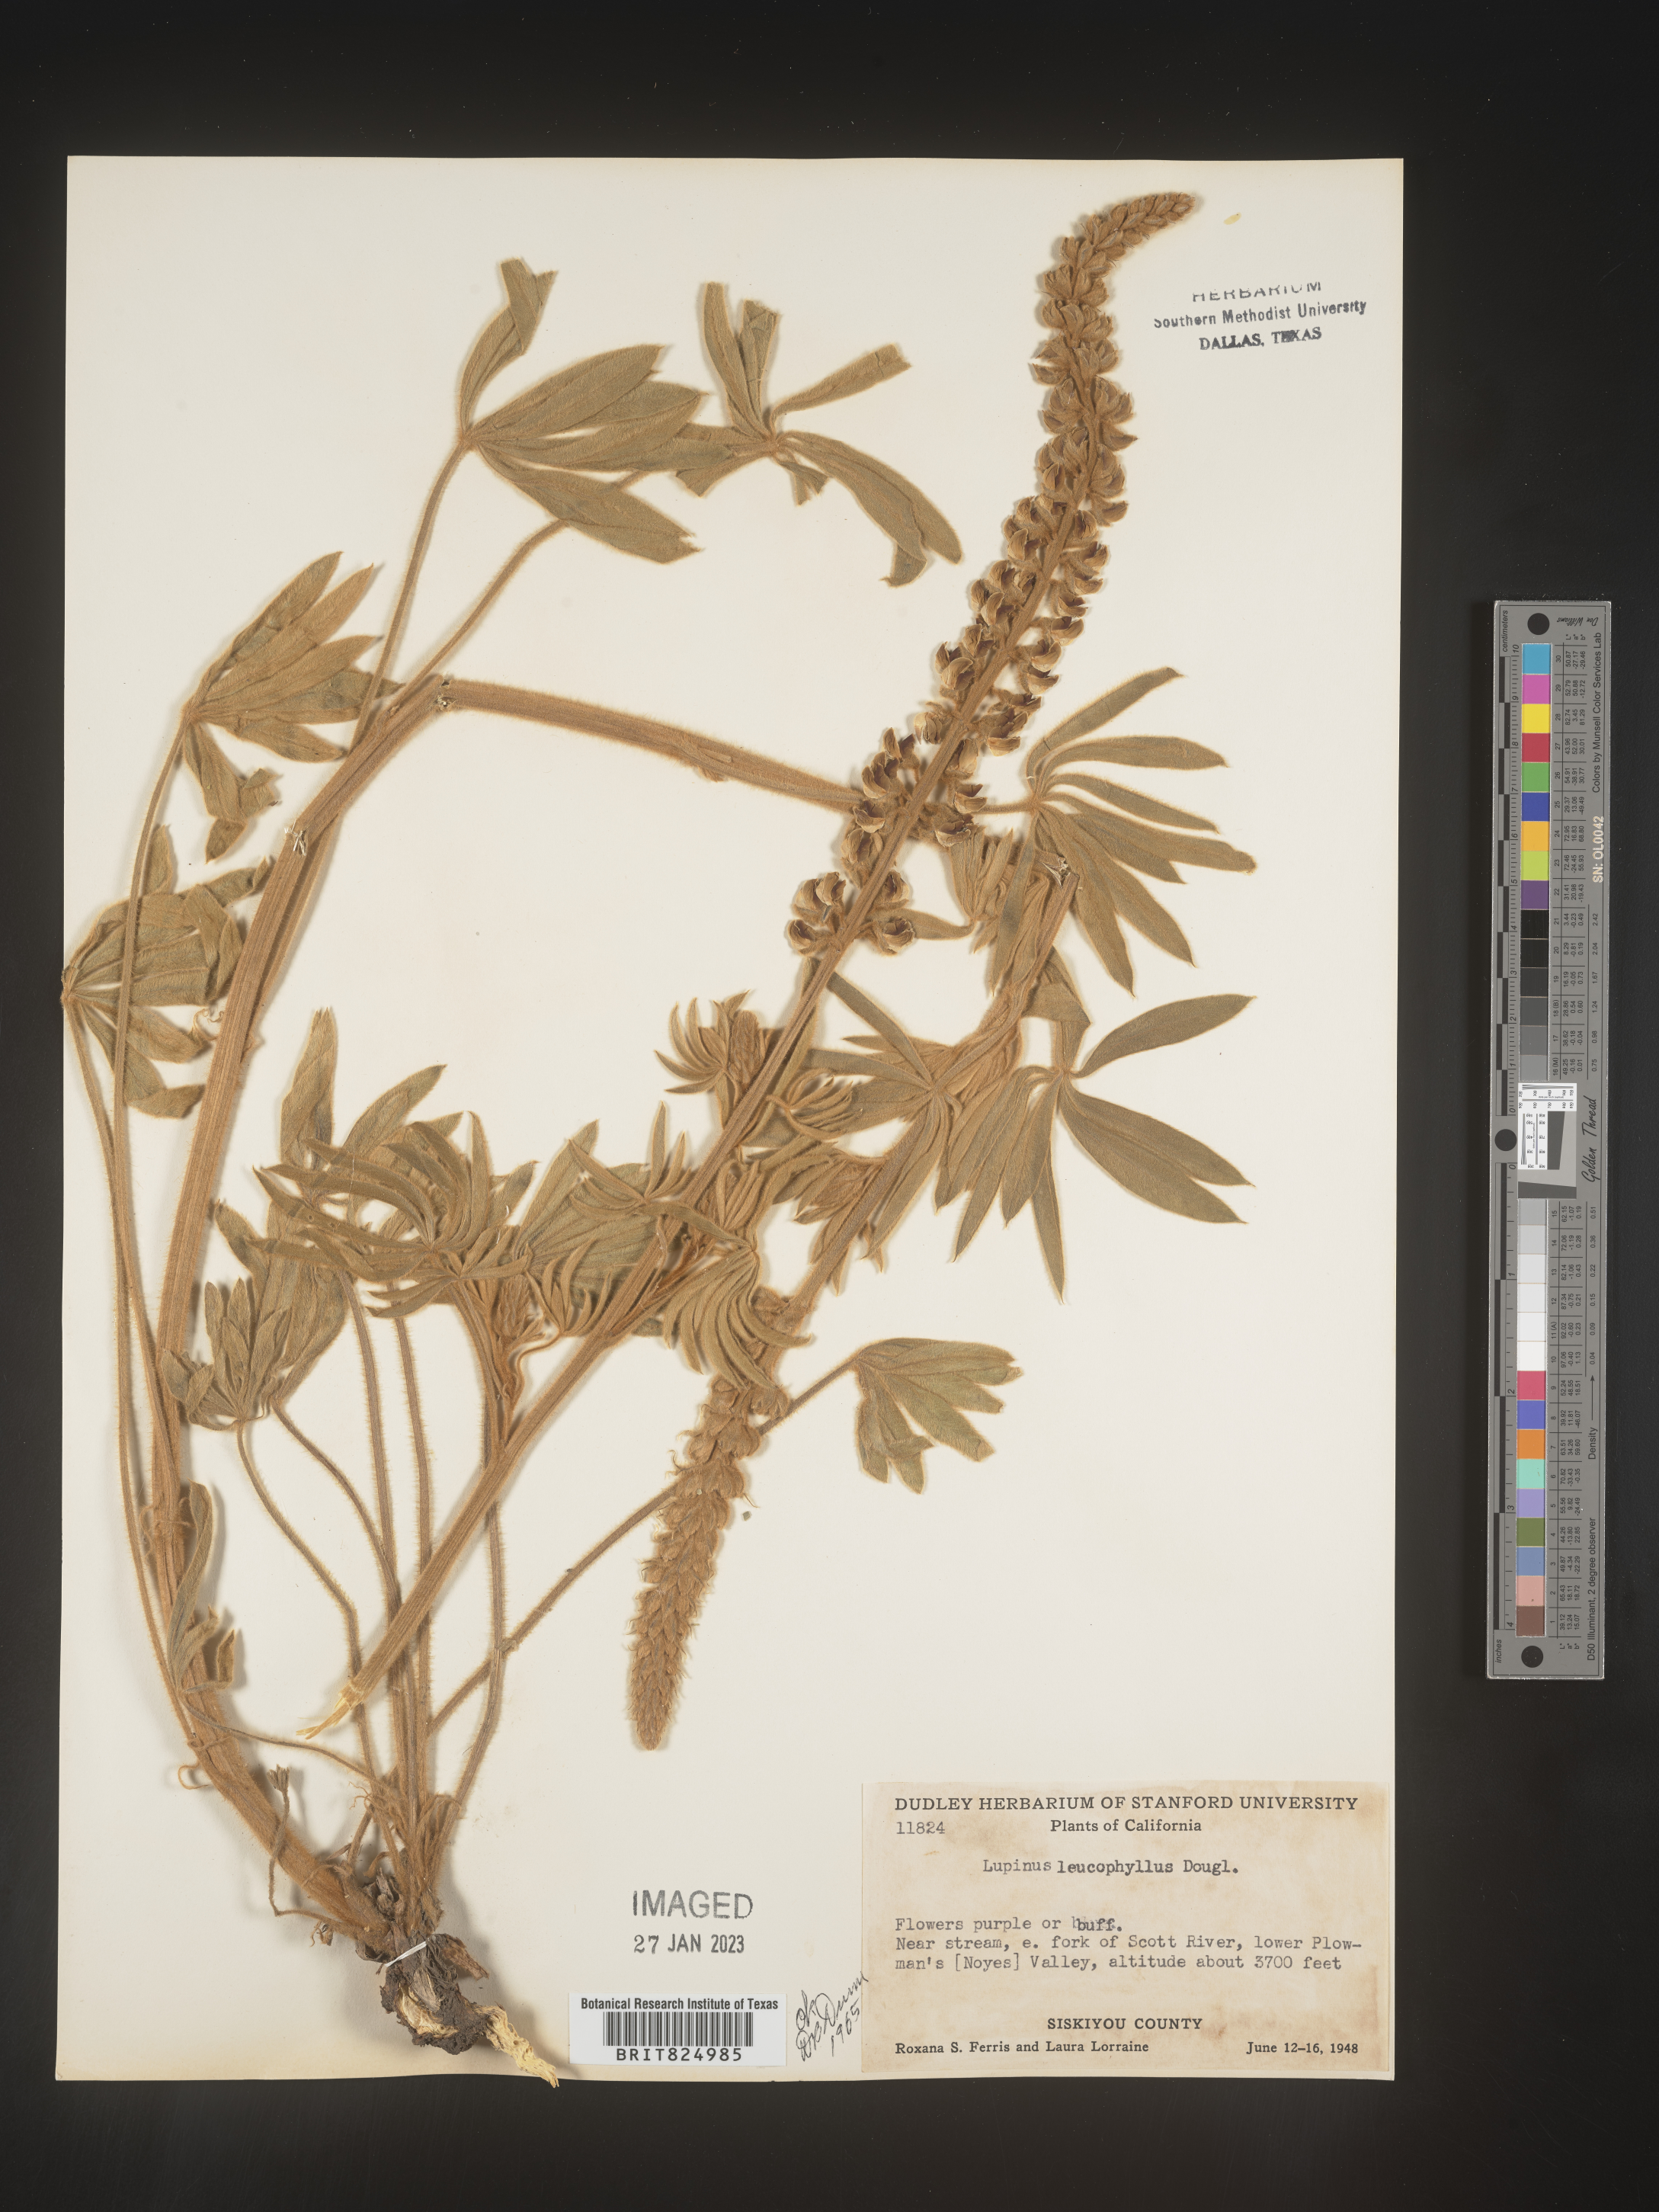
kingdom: Plantae
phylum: Tracheophyta
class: Magnoliopsida
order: Fabales
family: Fabaceae
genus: Lupinus
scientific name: Lupinus
